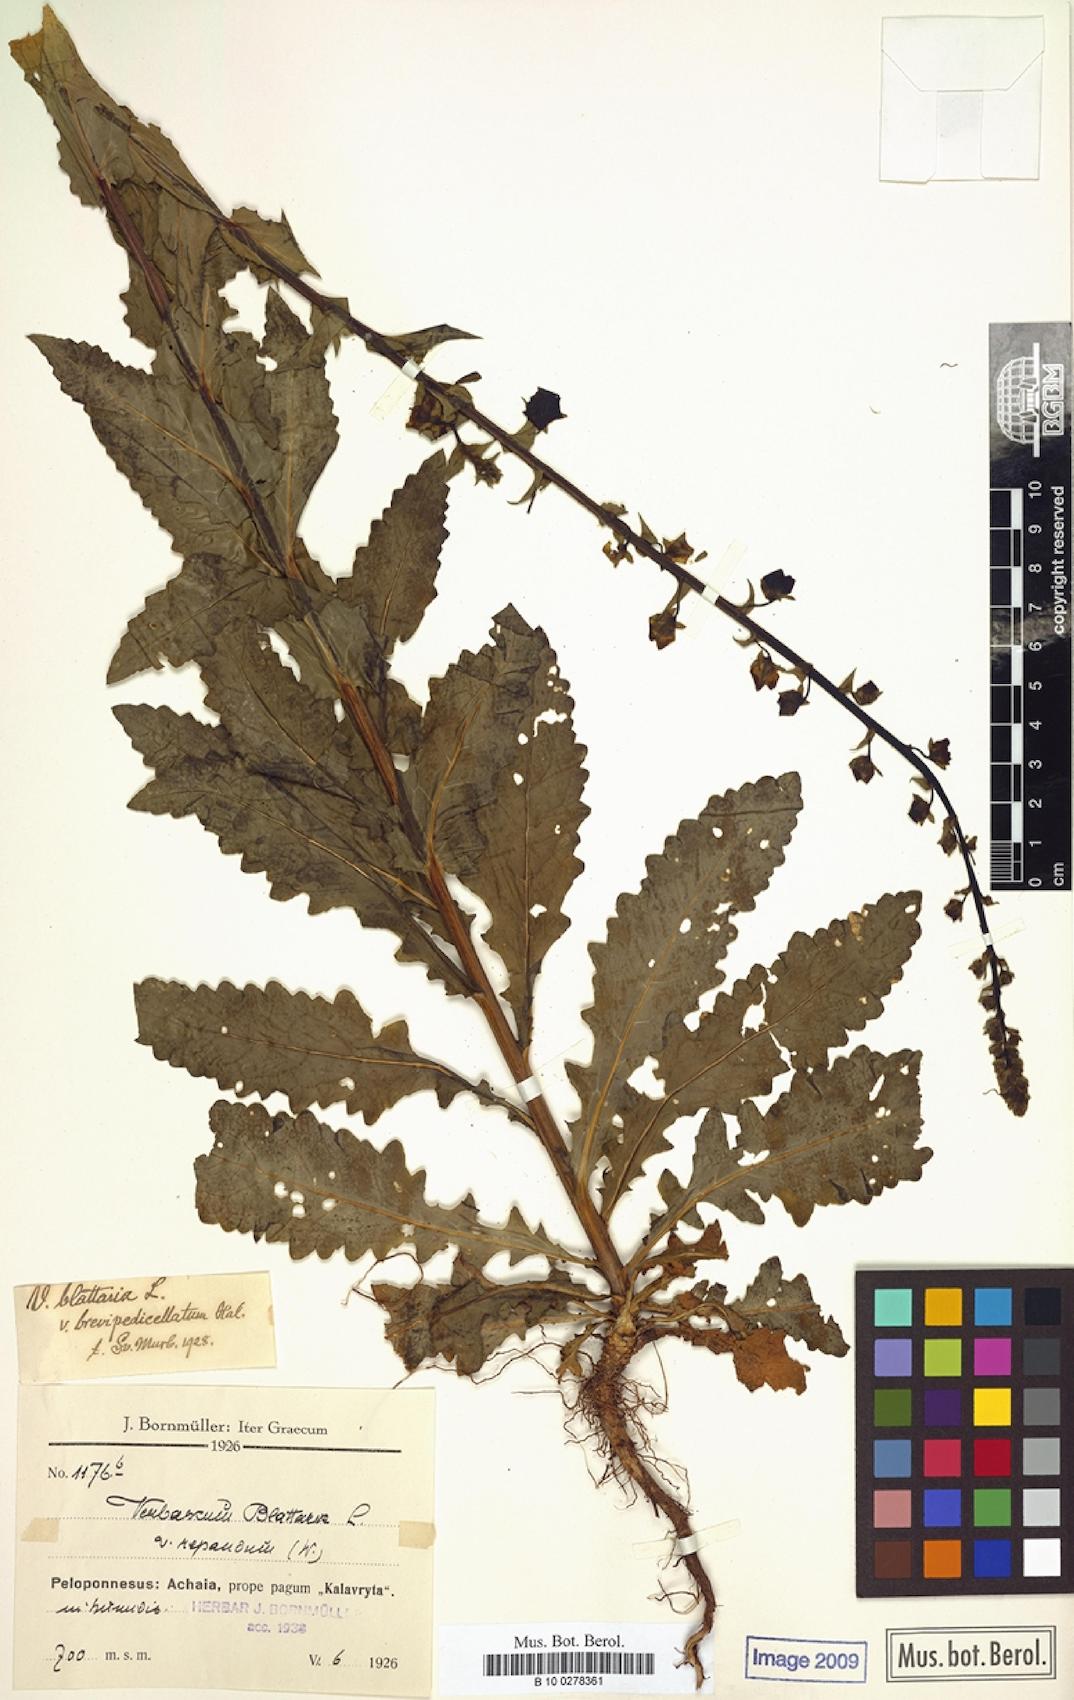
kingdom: Plantae
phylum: Tracheophyta
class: Magnoliopsida
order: Lamiales
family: Scrophulariaceae
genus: Verbascum
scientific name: Verbascum blattaria
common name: Moth mullein
